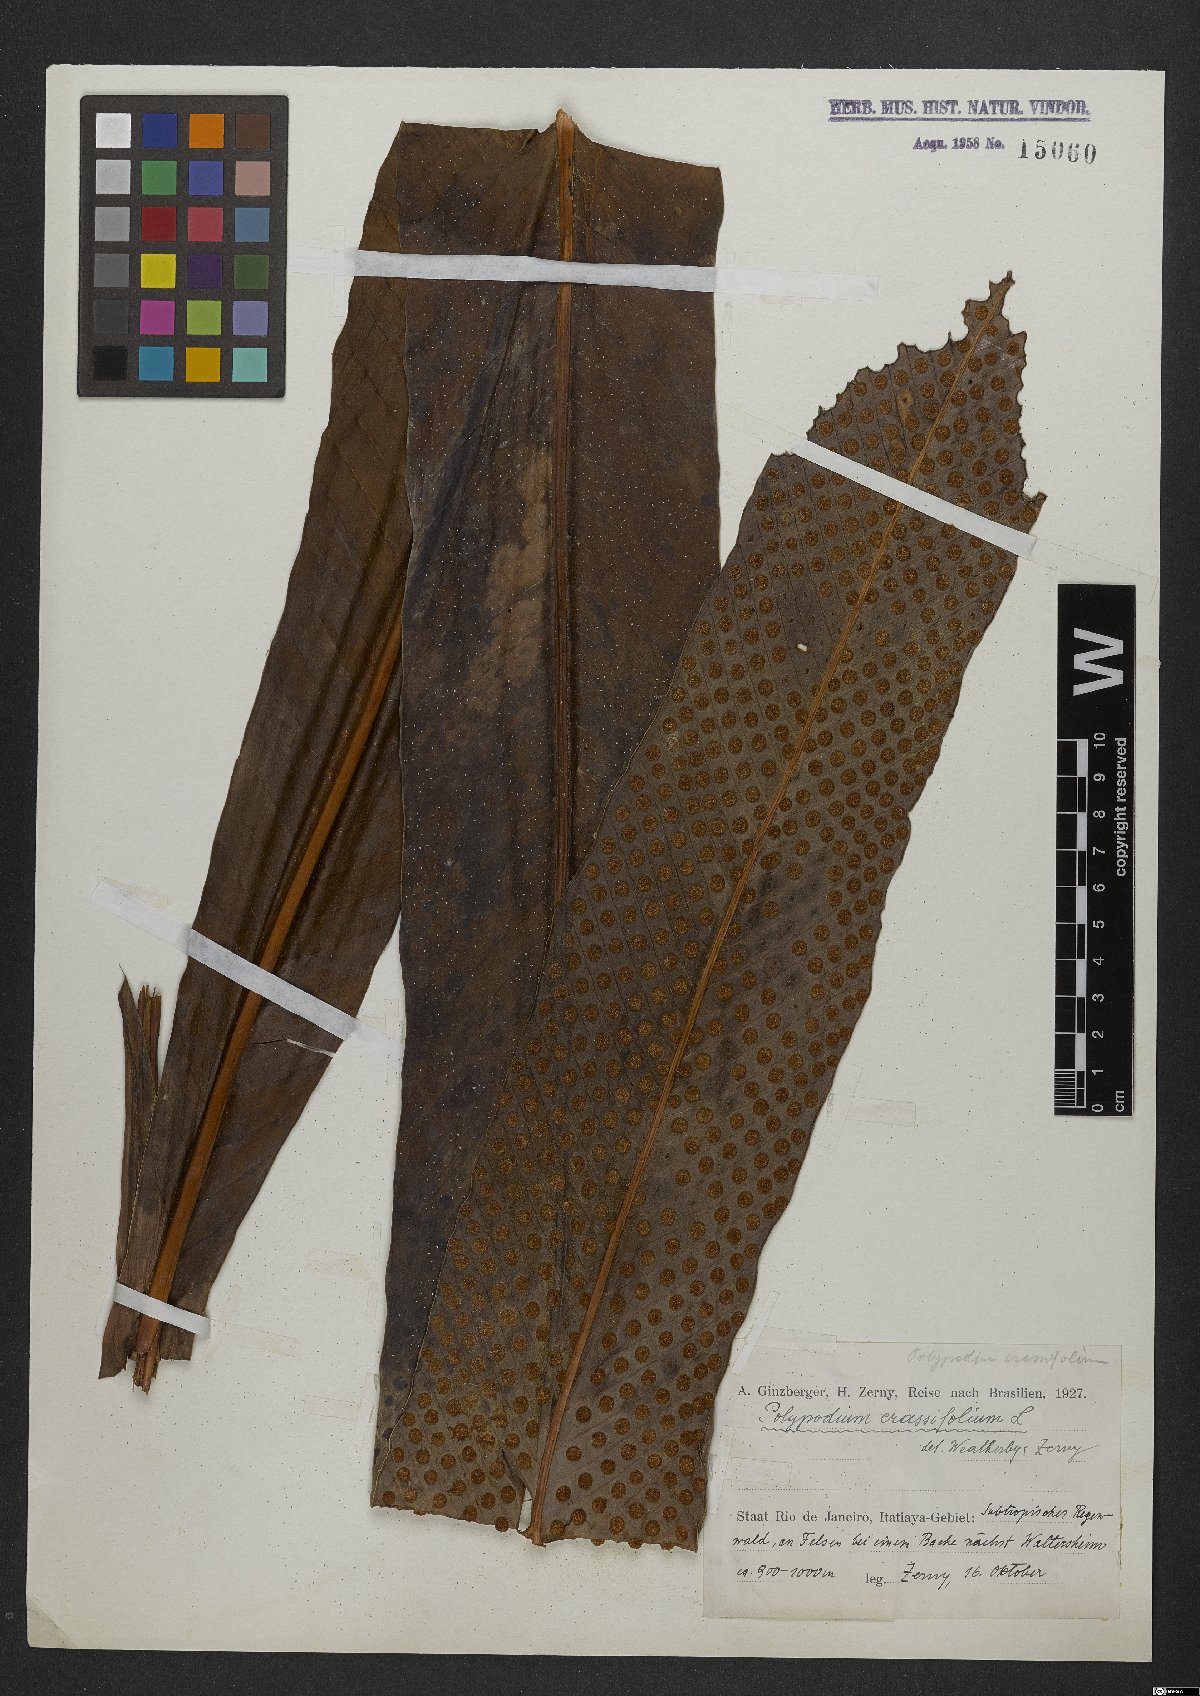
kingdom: Plantae
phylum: Tracheophyta
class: Polypodiopsida
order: Polypodiales
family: Polypodiaceae
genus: Niphidium
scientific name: Niphidium crassifolium
